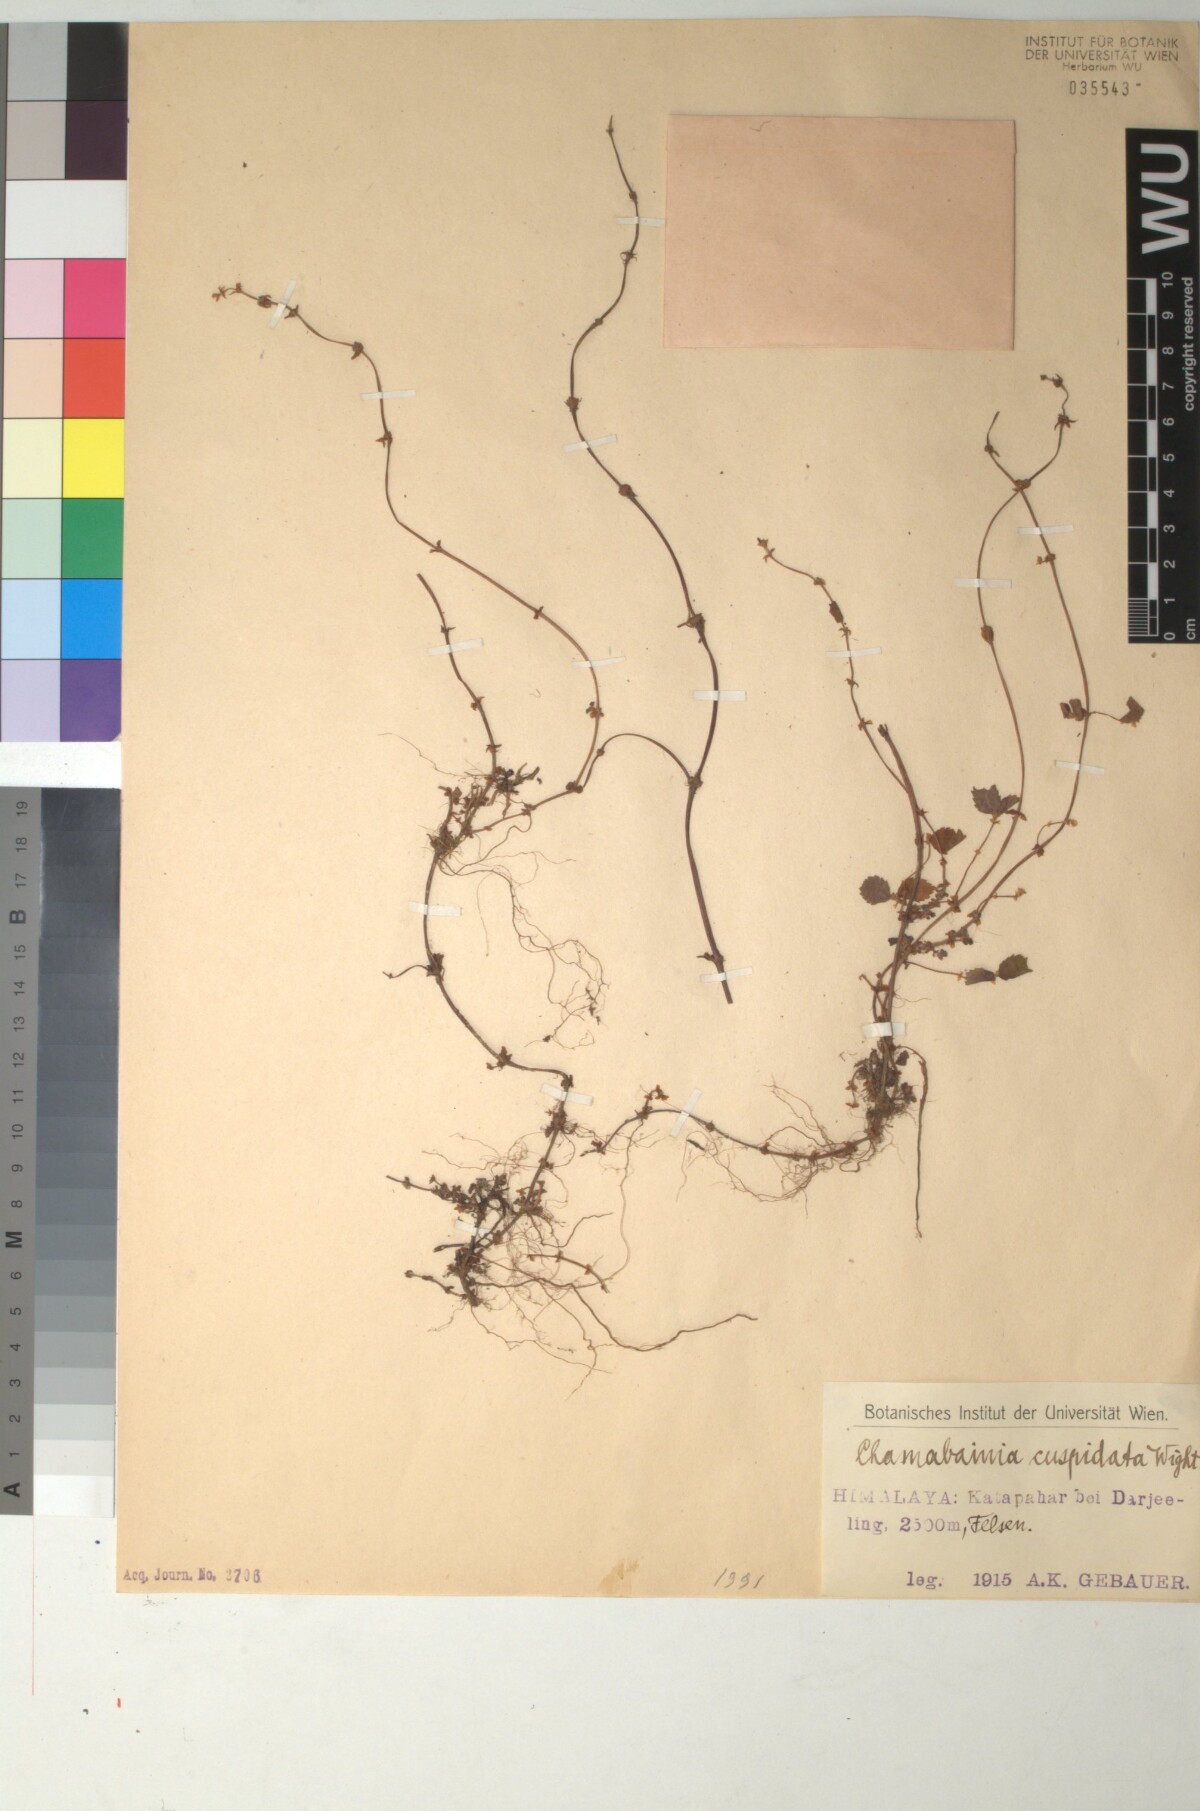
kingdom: Plantae
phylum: Tracheophyta
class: Magnoliopsida
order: Rosales
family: Urticaceae
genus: Chamabainia
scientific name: Chamabainia cuspidata
